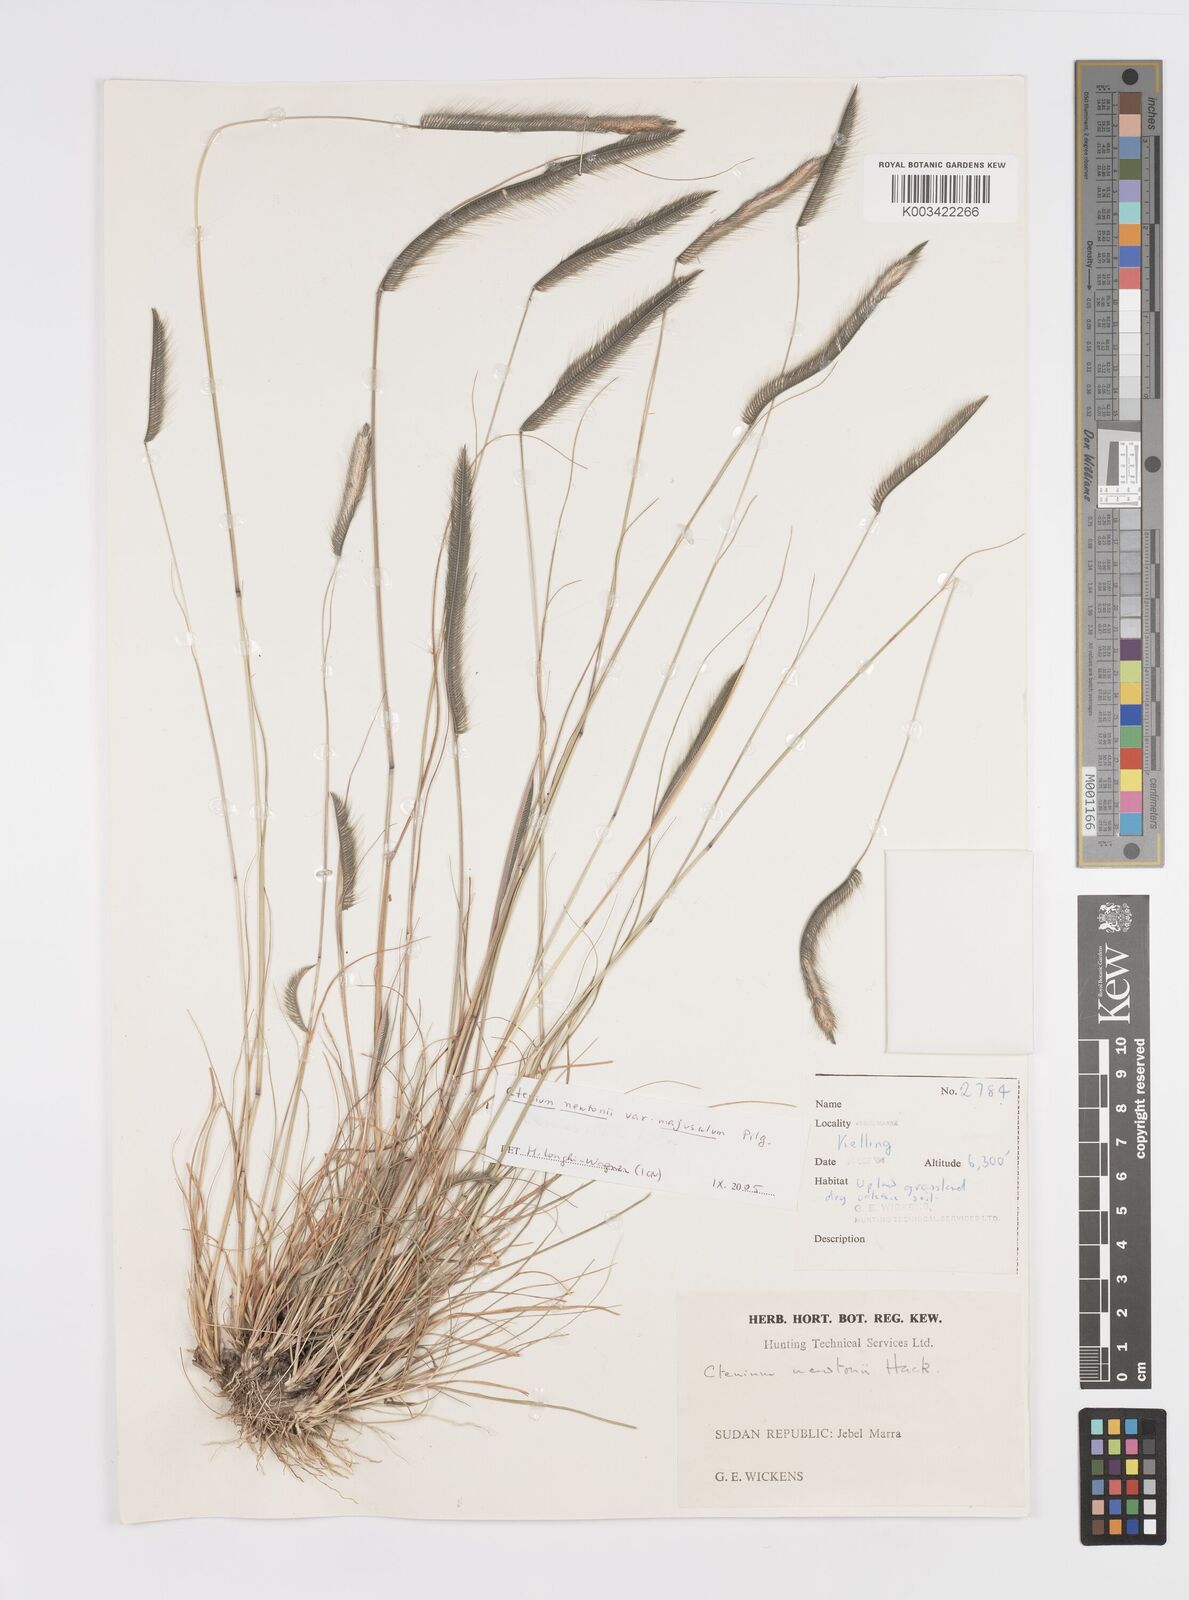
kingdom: Plantae
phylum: Tracheophyta
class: Liliopsida
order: Poales
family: Poaceae
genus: Ctenium
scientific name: Ctenium newtonii
